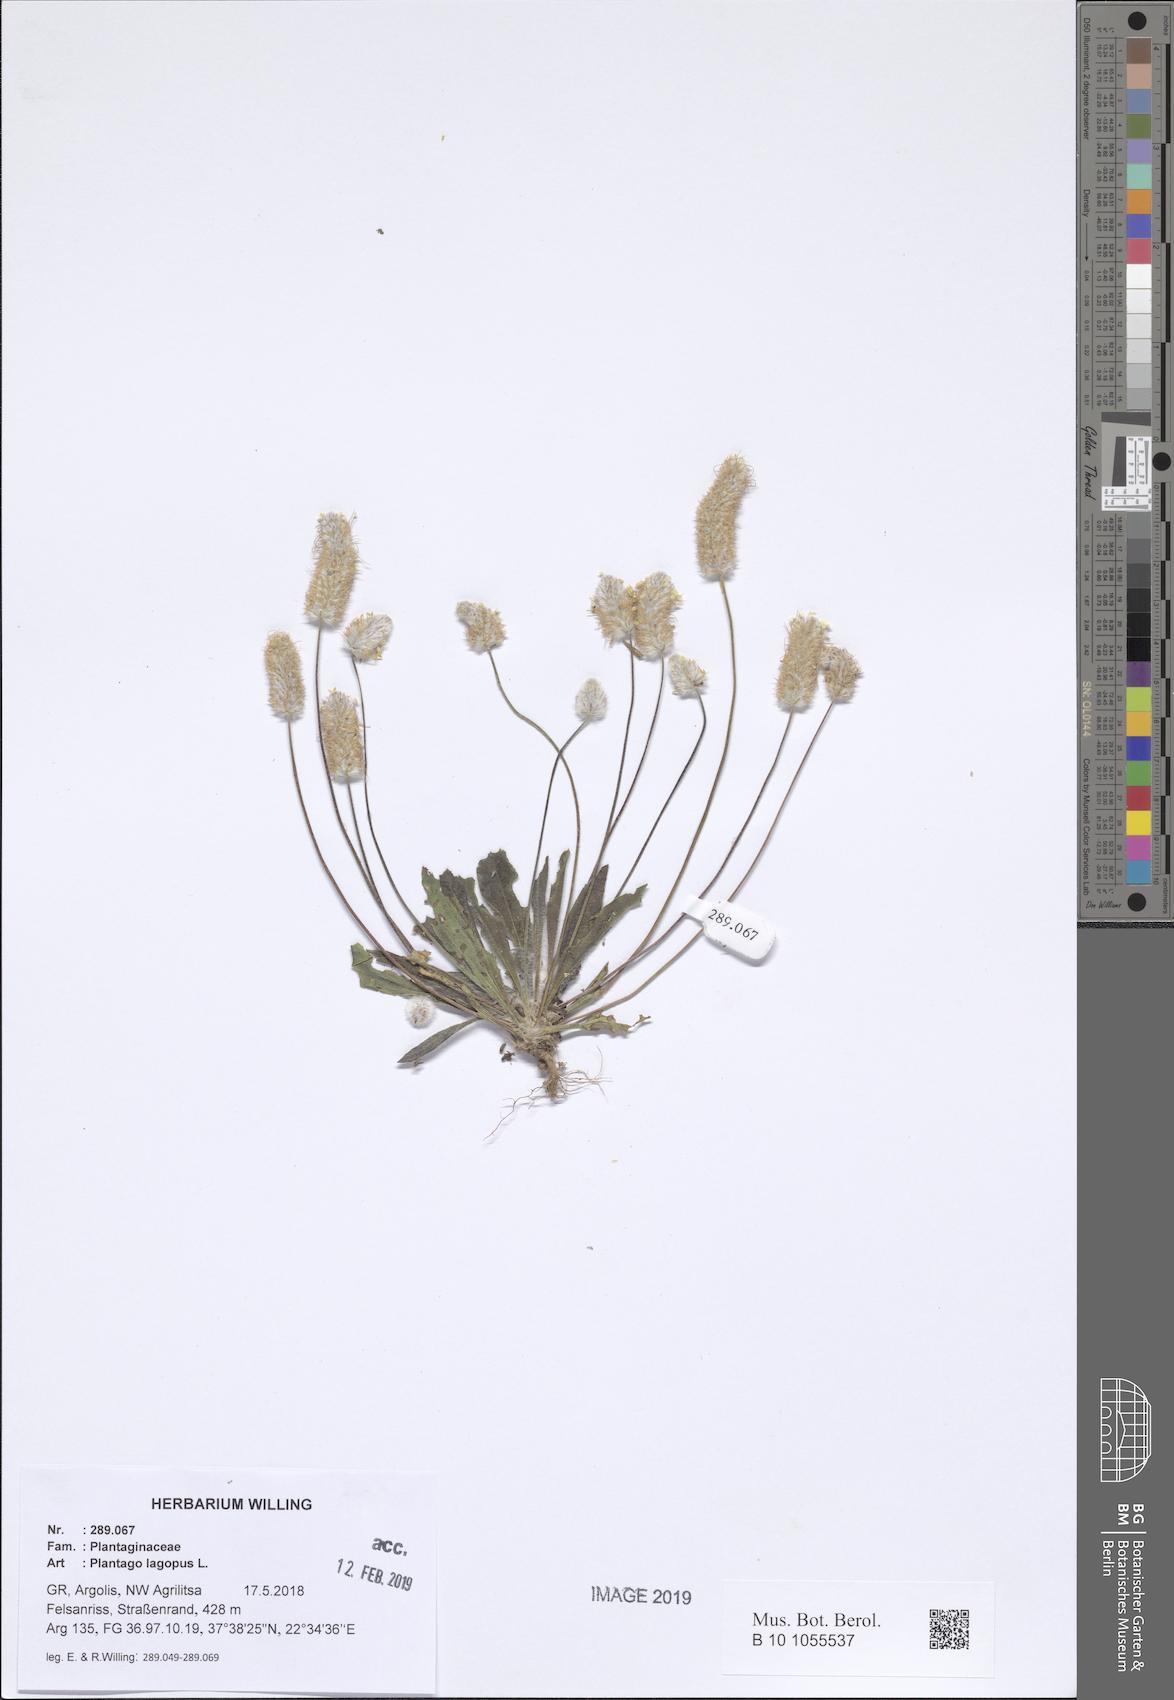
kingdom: Plantae
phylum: Tracheophyta
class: Magnoliopsida
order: Lamiales
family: Plantaginaceae
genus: Plantago
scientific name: Plantago lagopus
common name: Hare-foot plantain
